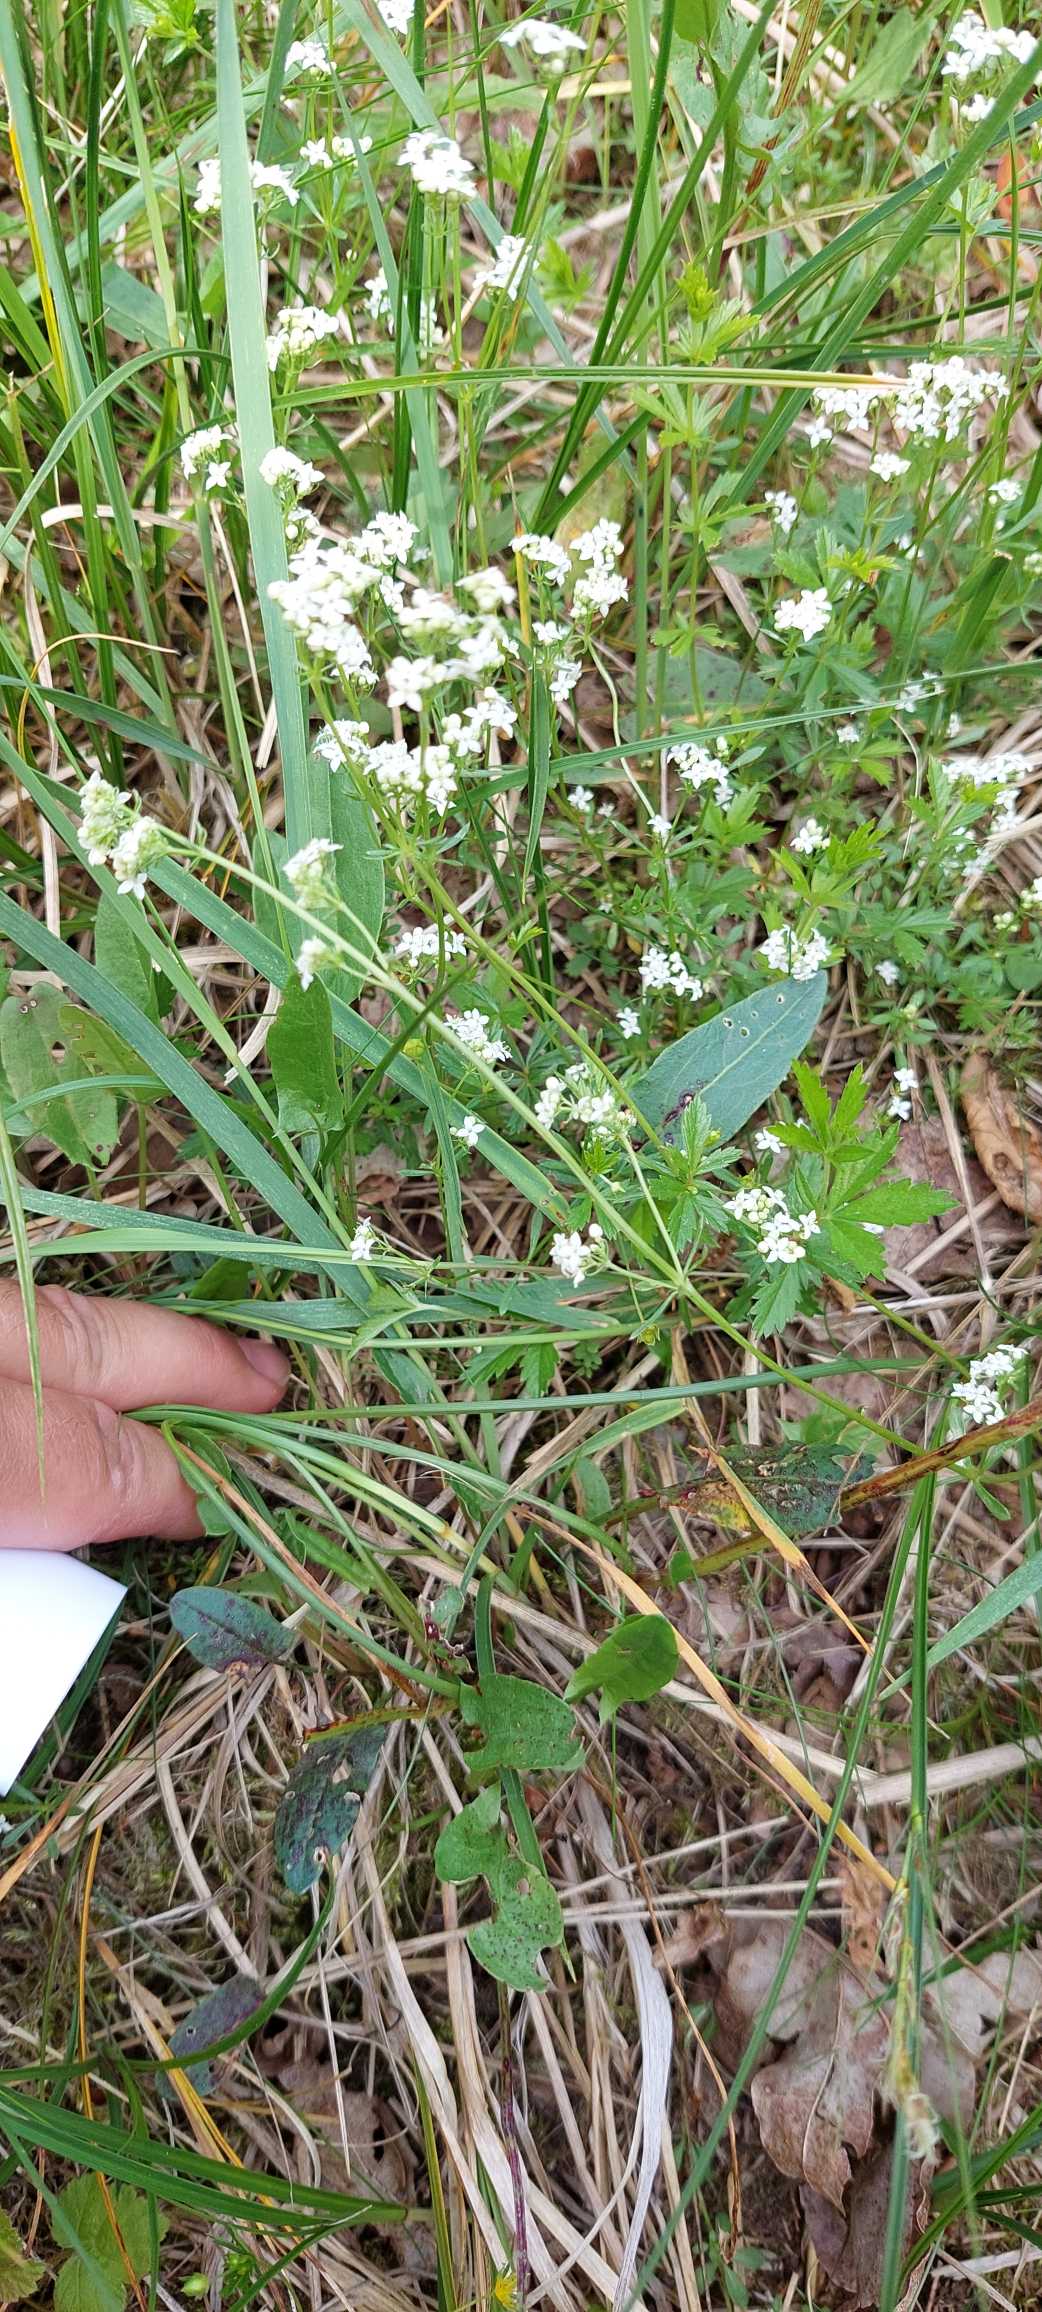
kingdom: Plantae
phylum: Tracheophyta
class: Magnoliopsida
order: Gentianales
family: Rubiaceae
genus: Galium
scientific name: Galium saxatile
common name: Lyng-snerre
